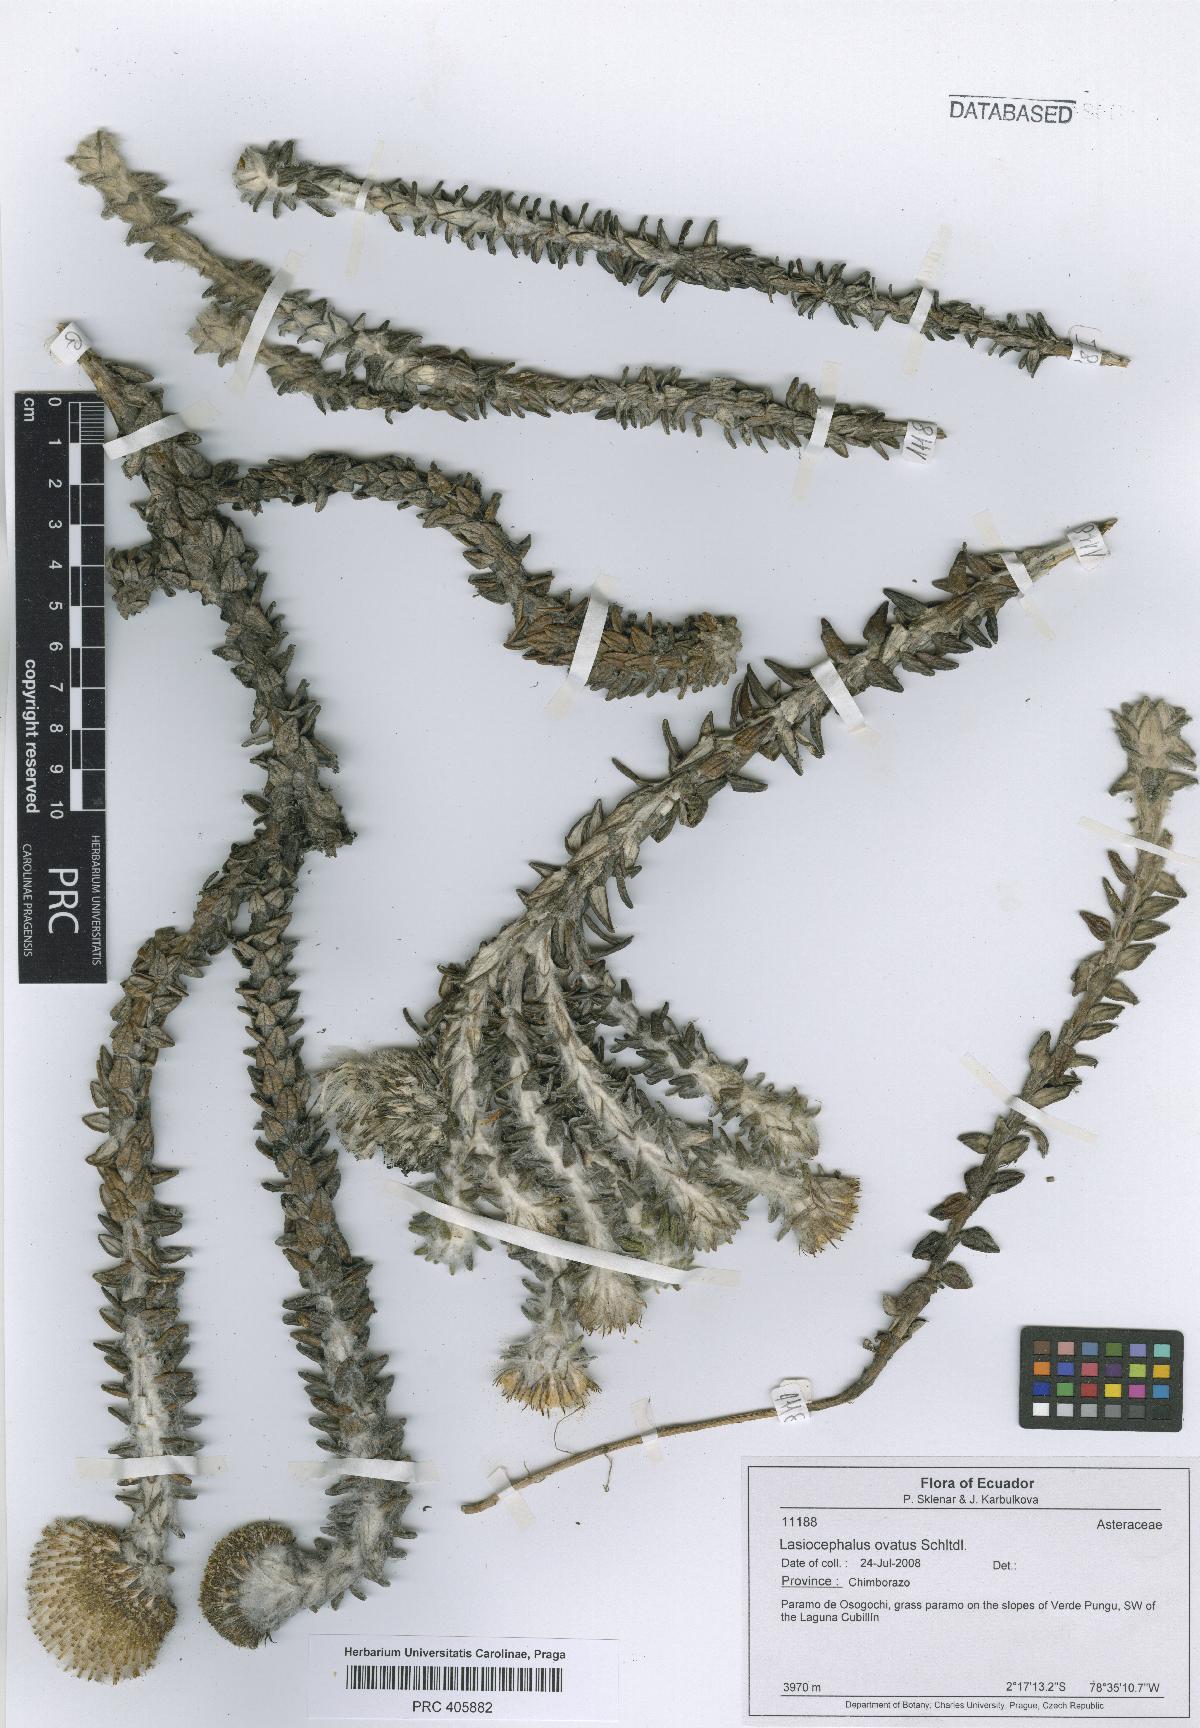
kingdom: Plantae
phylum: Tracheophyta
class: Magnoliopsida
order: Asterales
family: Asteraceae
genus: Lasiocephalus
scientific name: Lasiocephalus ovatus
